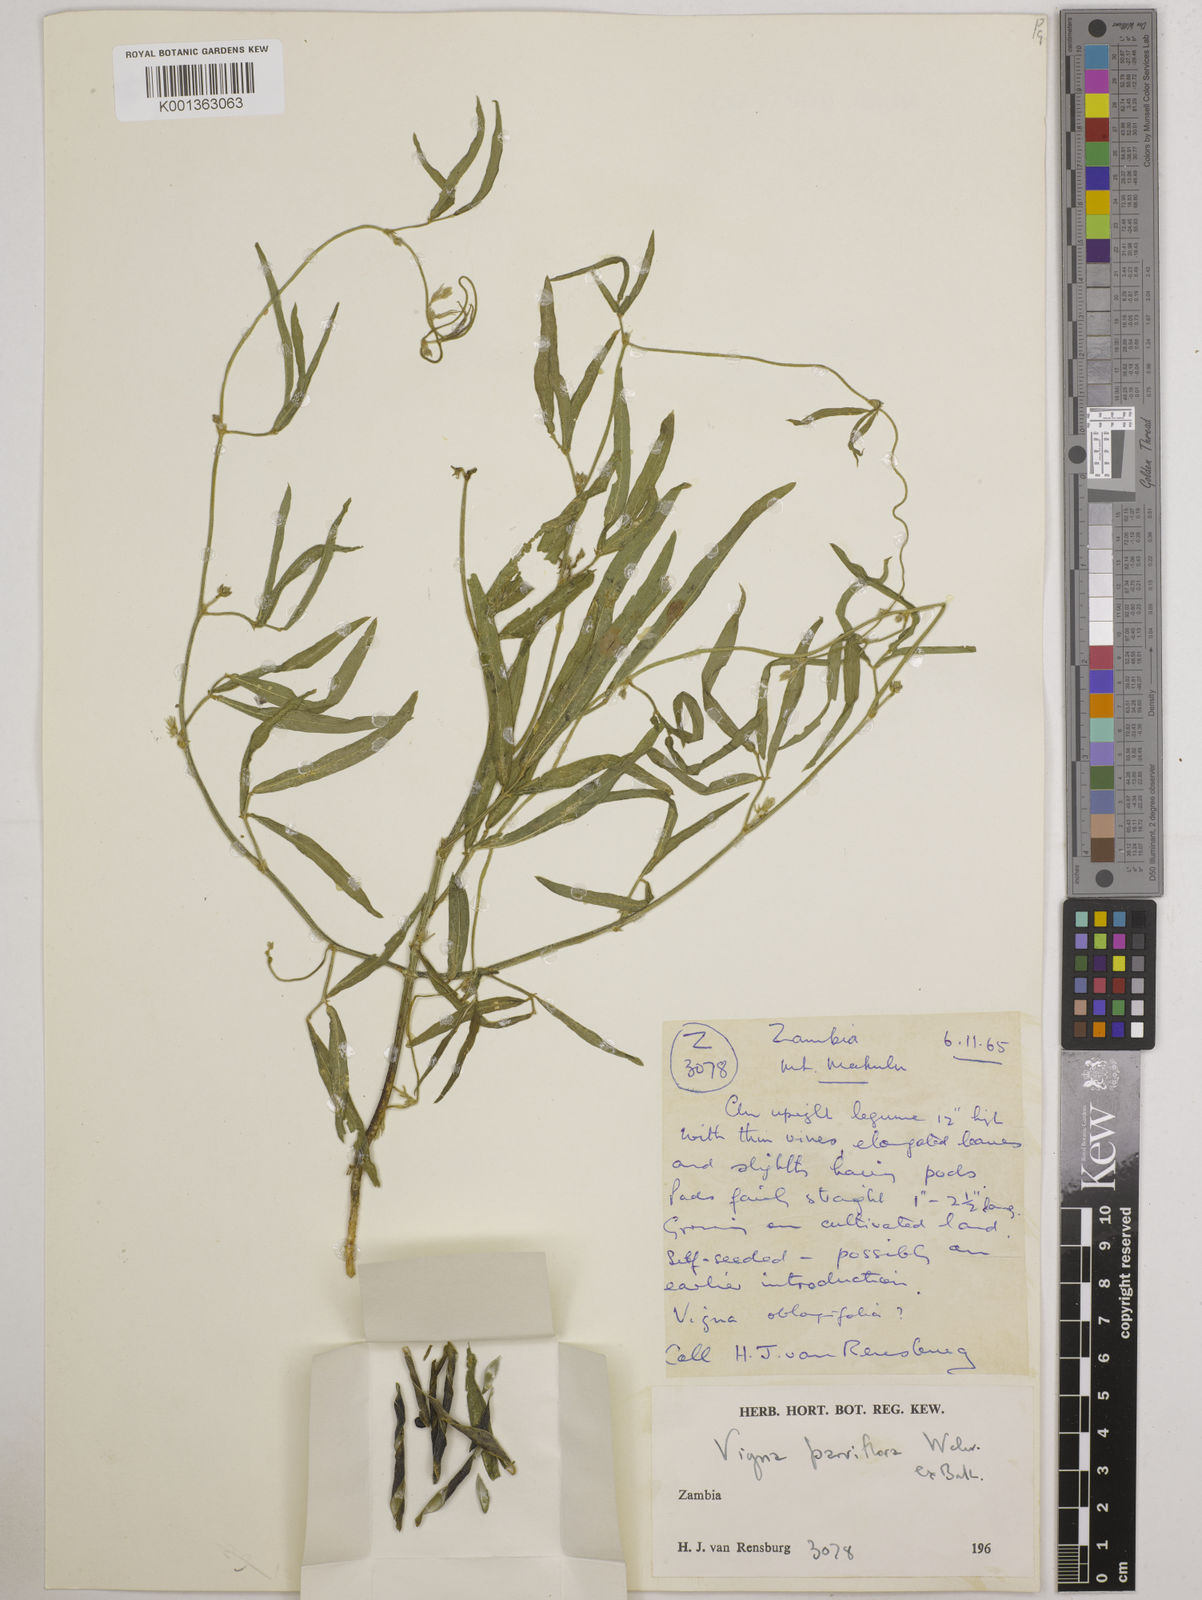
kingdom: Plantae
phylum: Tracheophyta
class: Magnoliopsida
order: Fabales
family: Fabaceae
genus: Vigna
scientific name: Vigna
